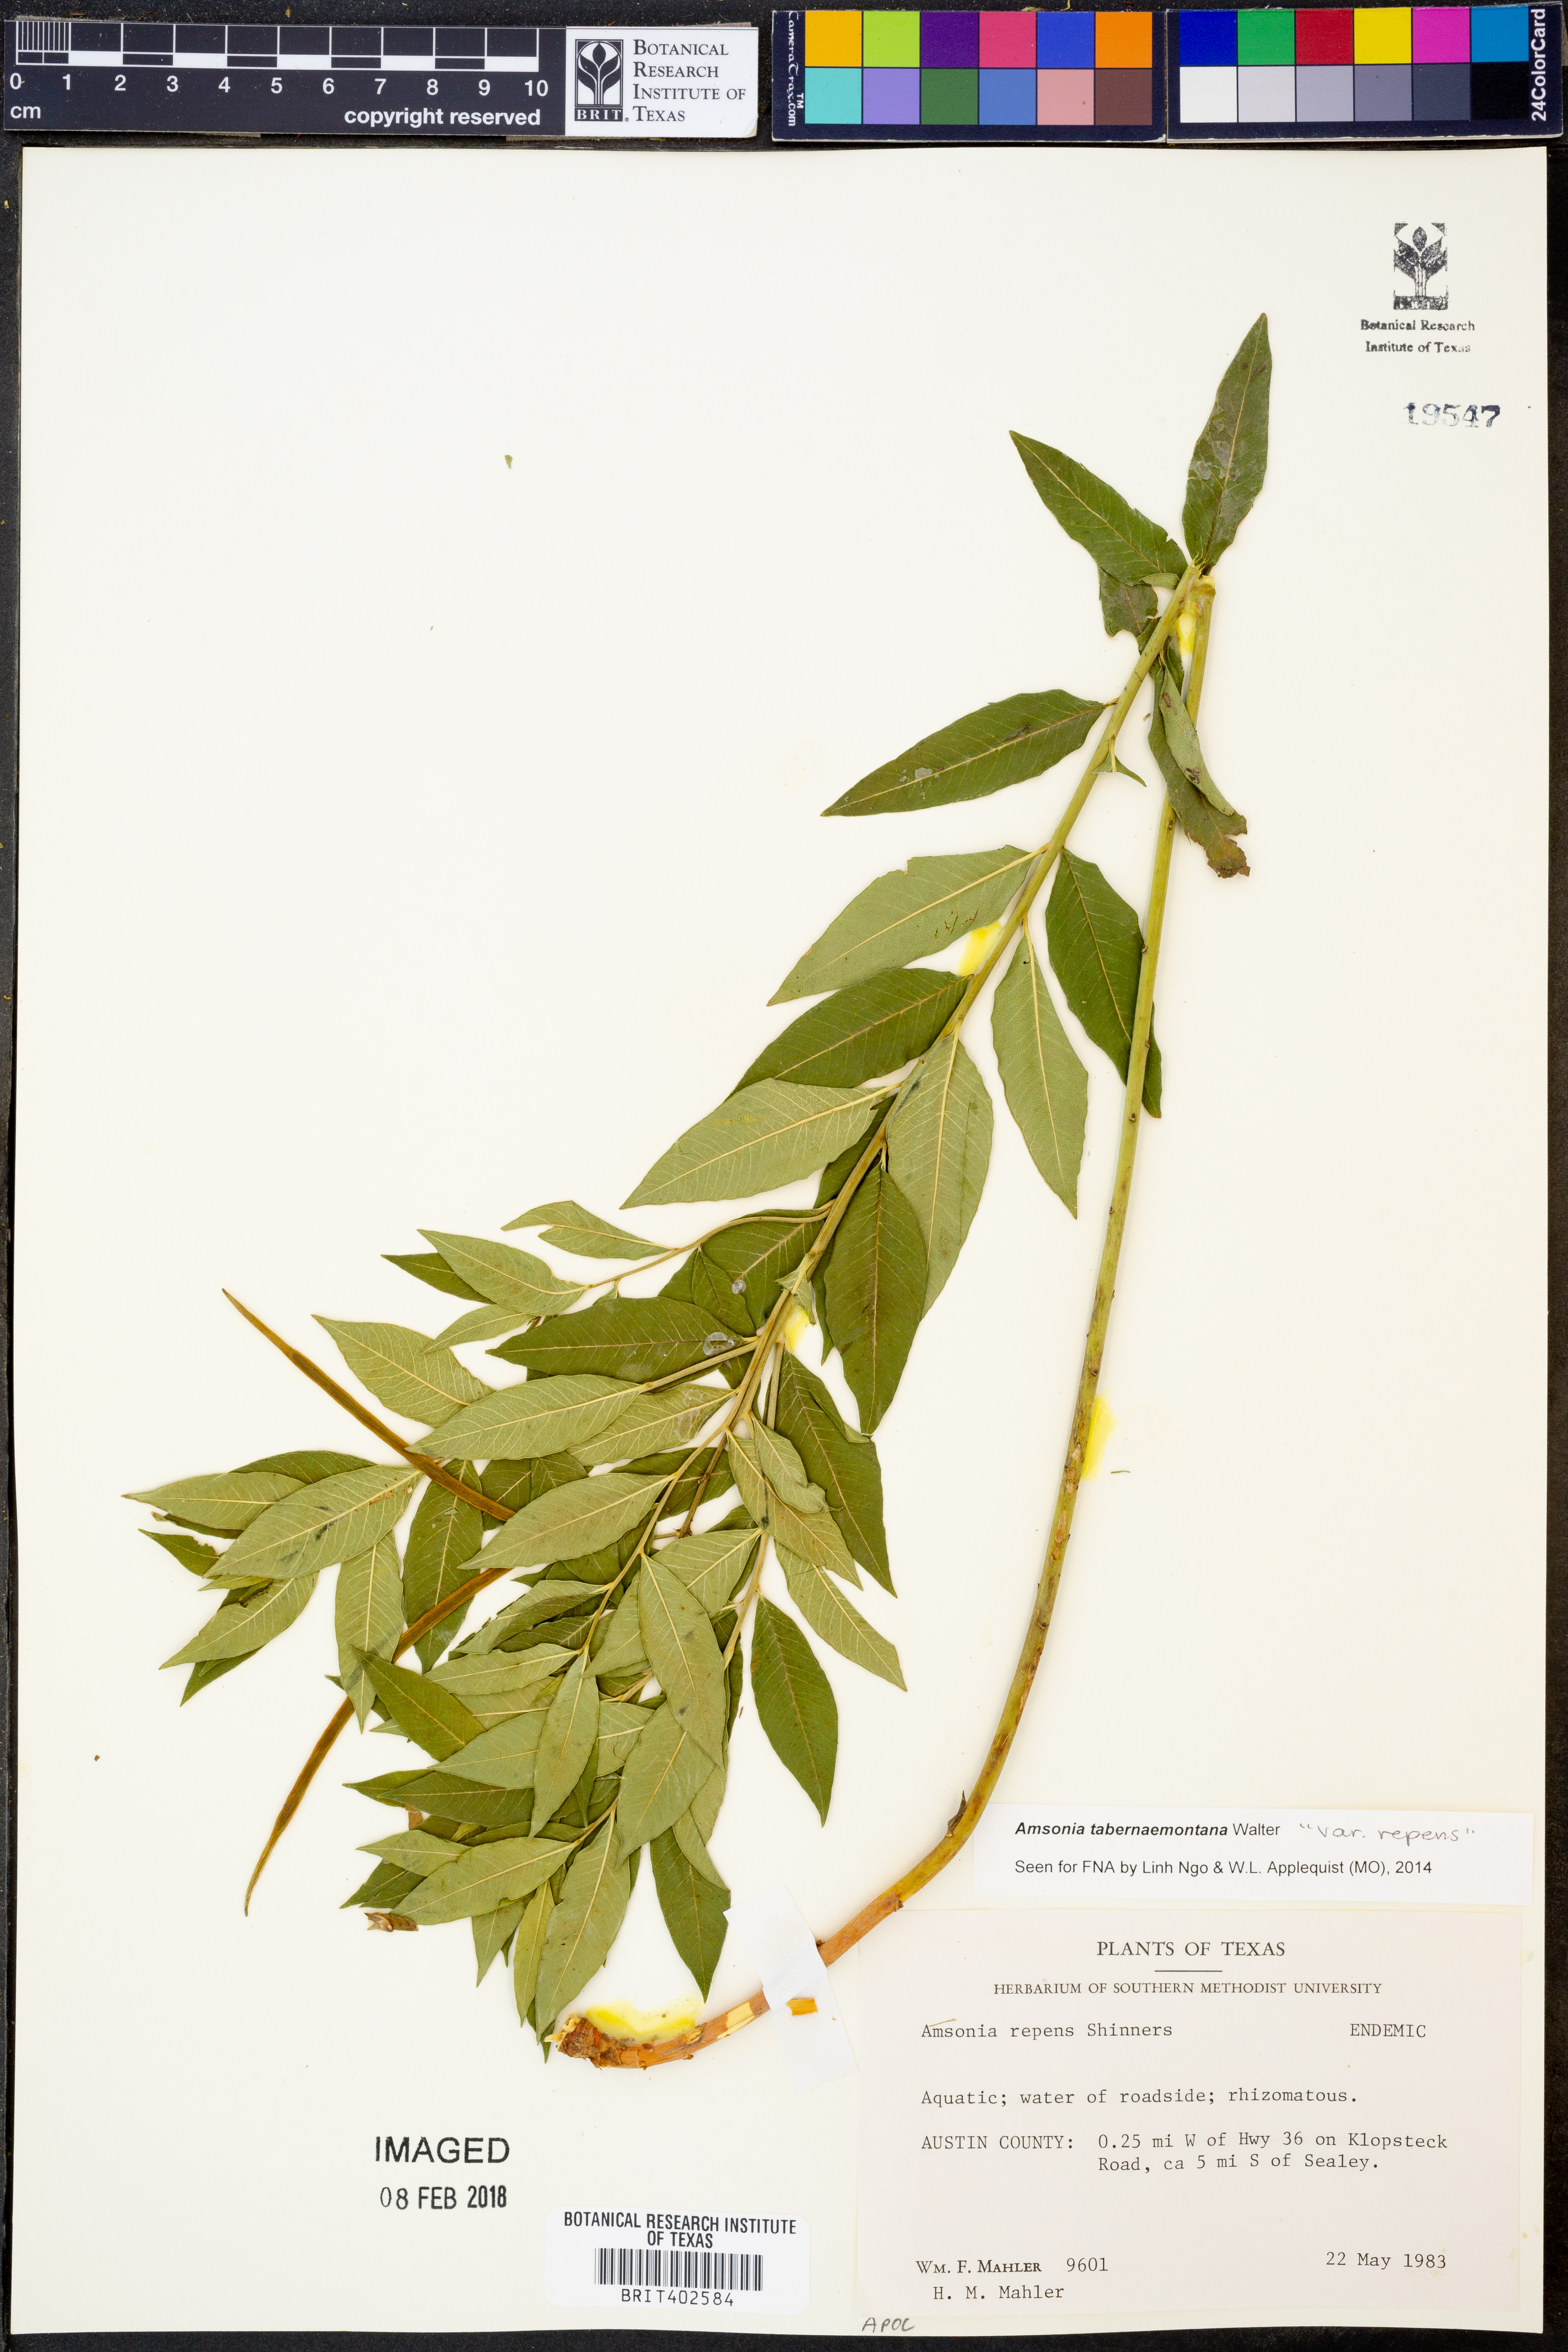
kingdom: Plantae
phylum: Tracheophyta
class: Magnoliopsida
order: Gentianales
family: Apocynaceae
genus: Amsonia
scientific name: Amsonia tabernaemontana
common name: Texas-star
